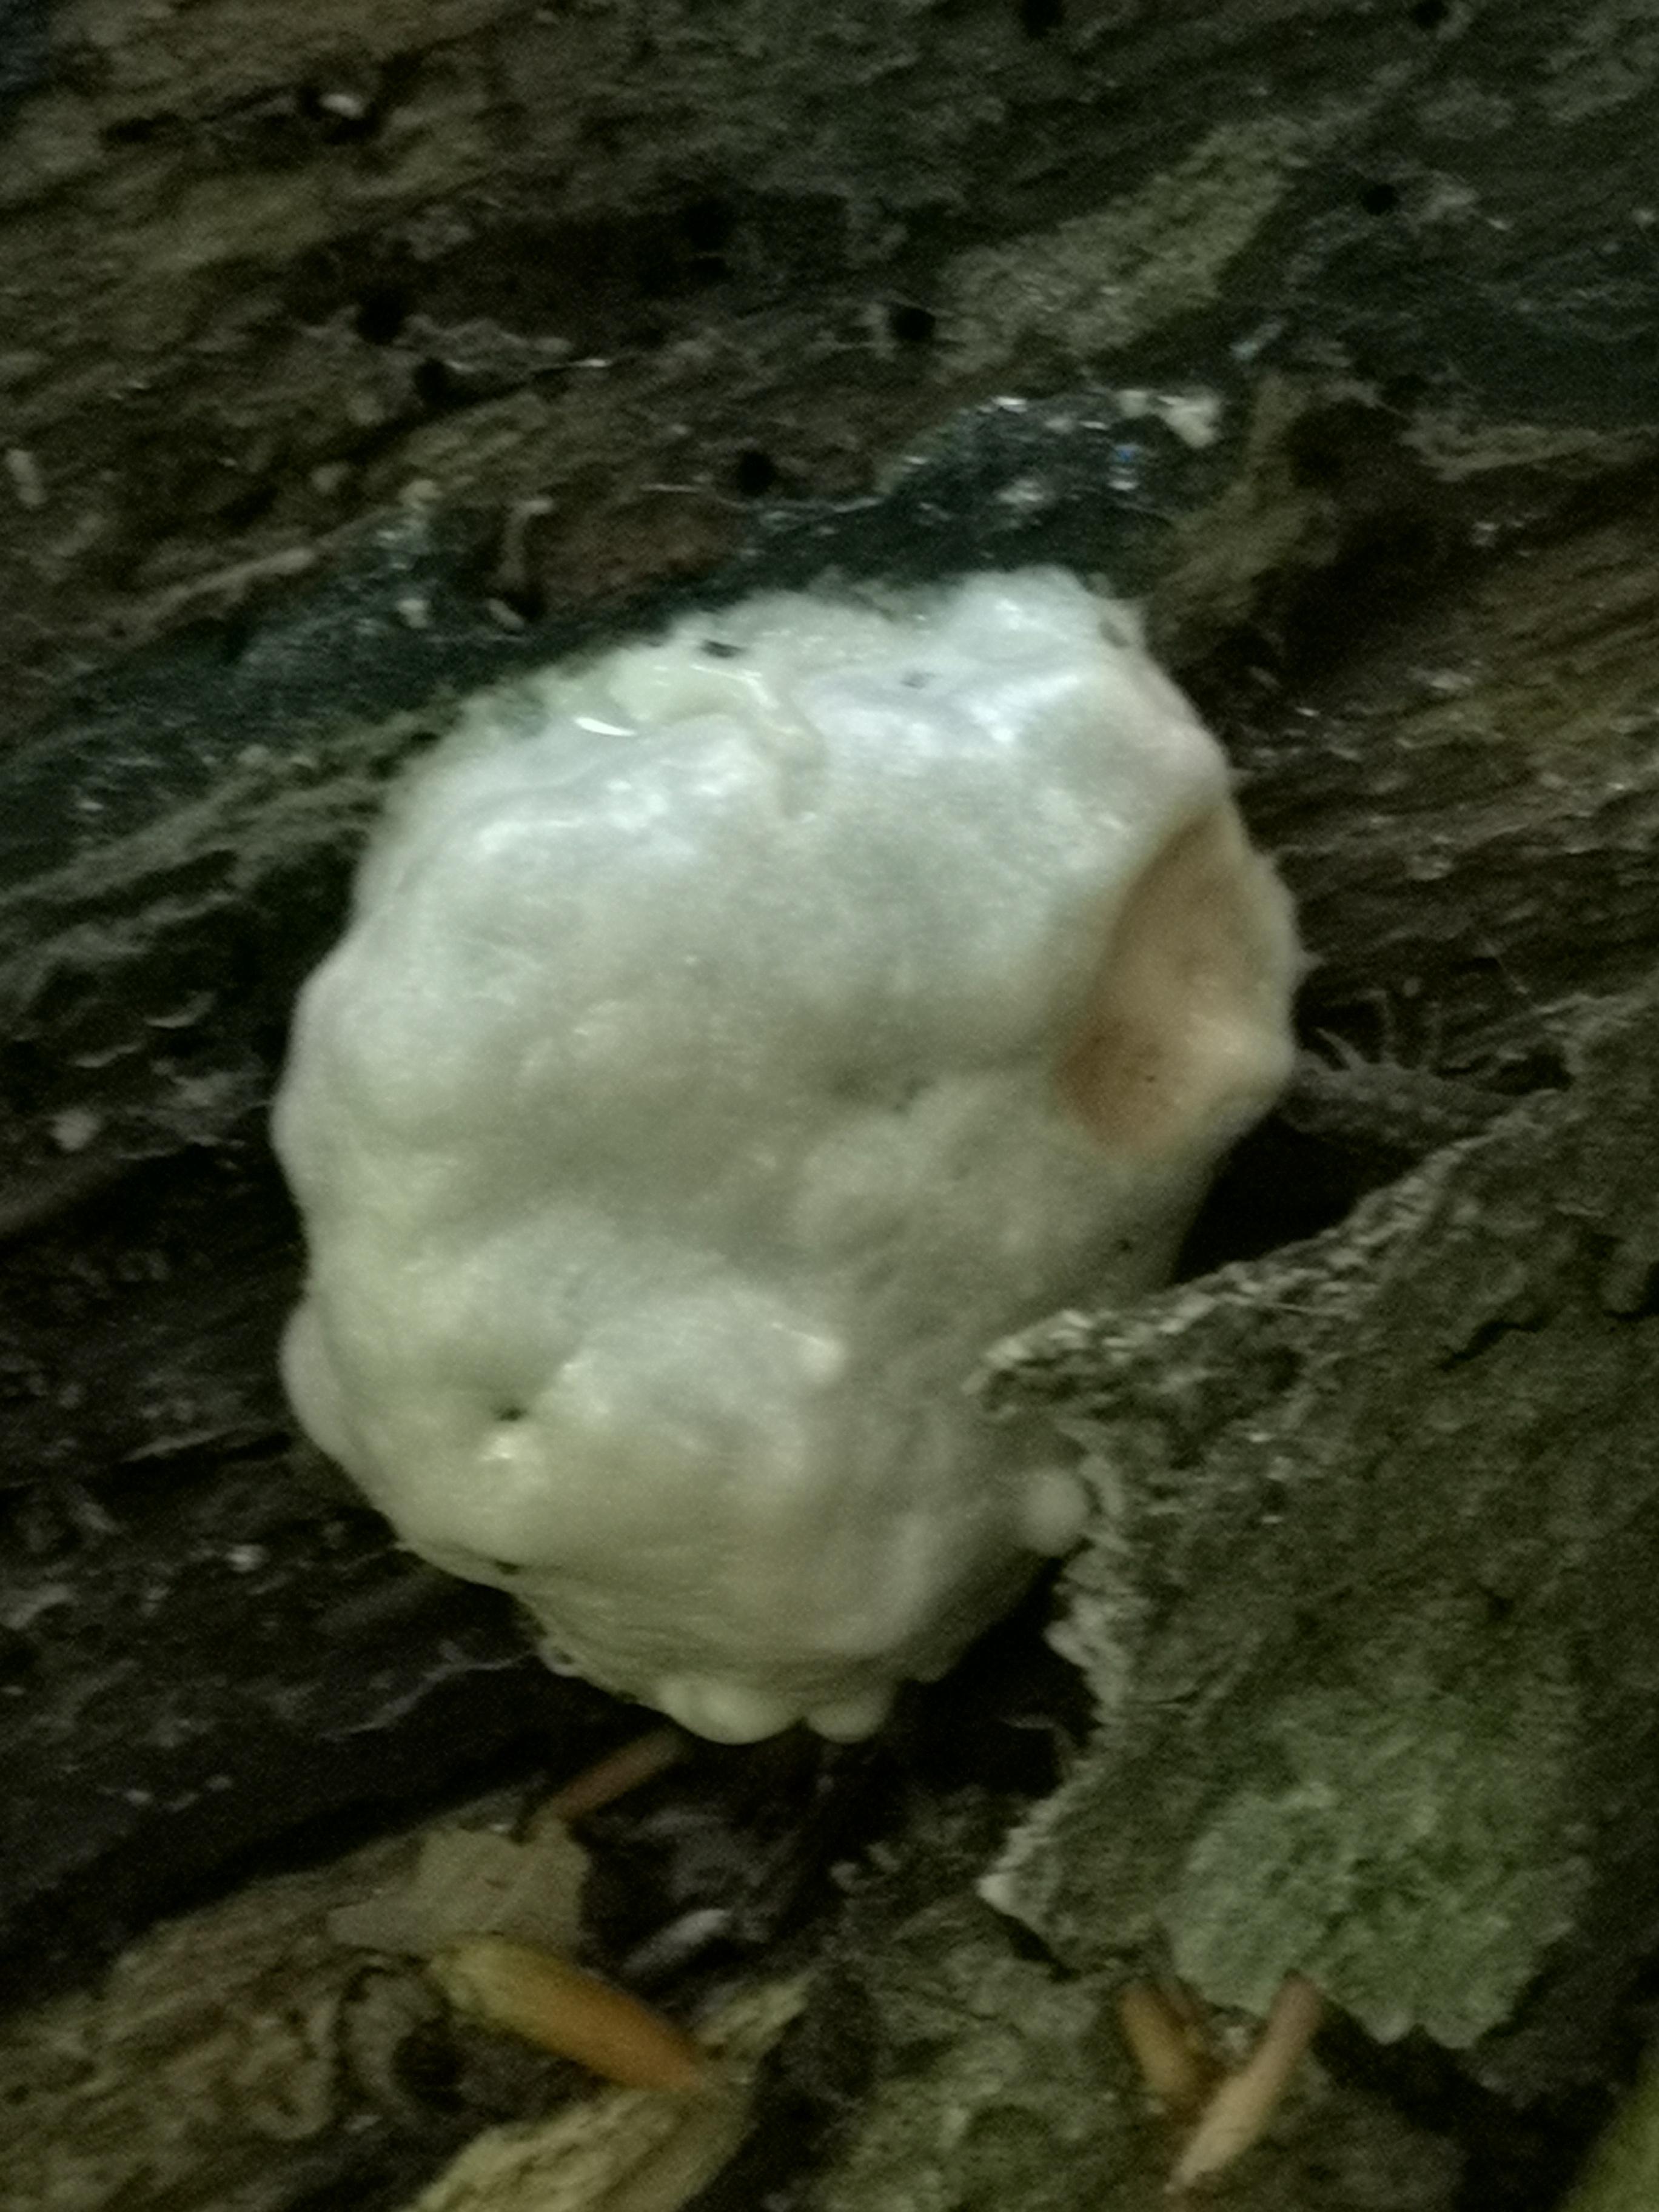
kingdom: Protozoa
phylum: Mycetozoa
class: Myxomycetes
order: Cribrariales
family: Tubiferaceae
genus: Reticularia
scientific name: Reticularia lycoperdon
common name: skinnende støvpude
